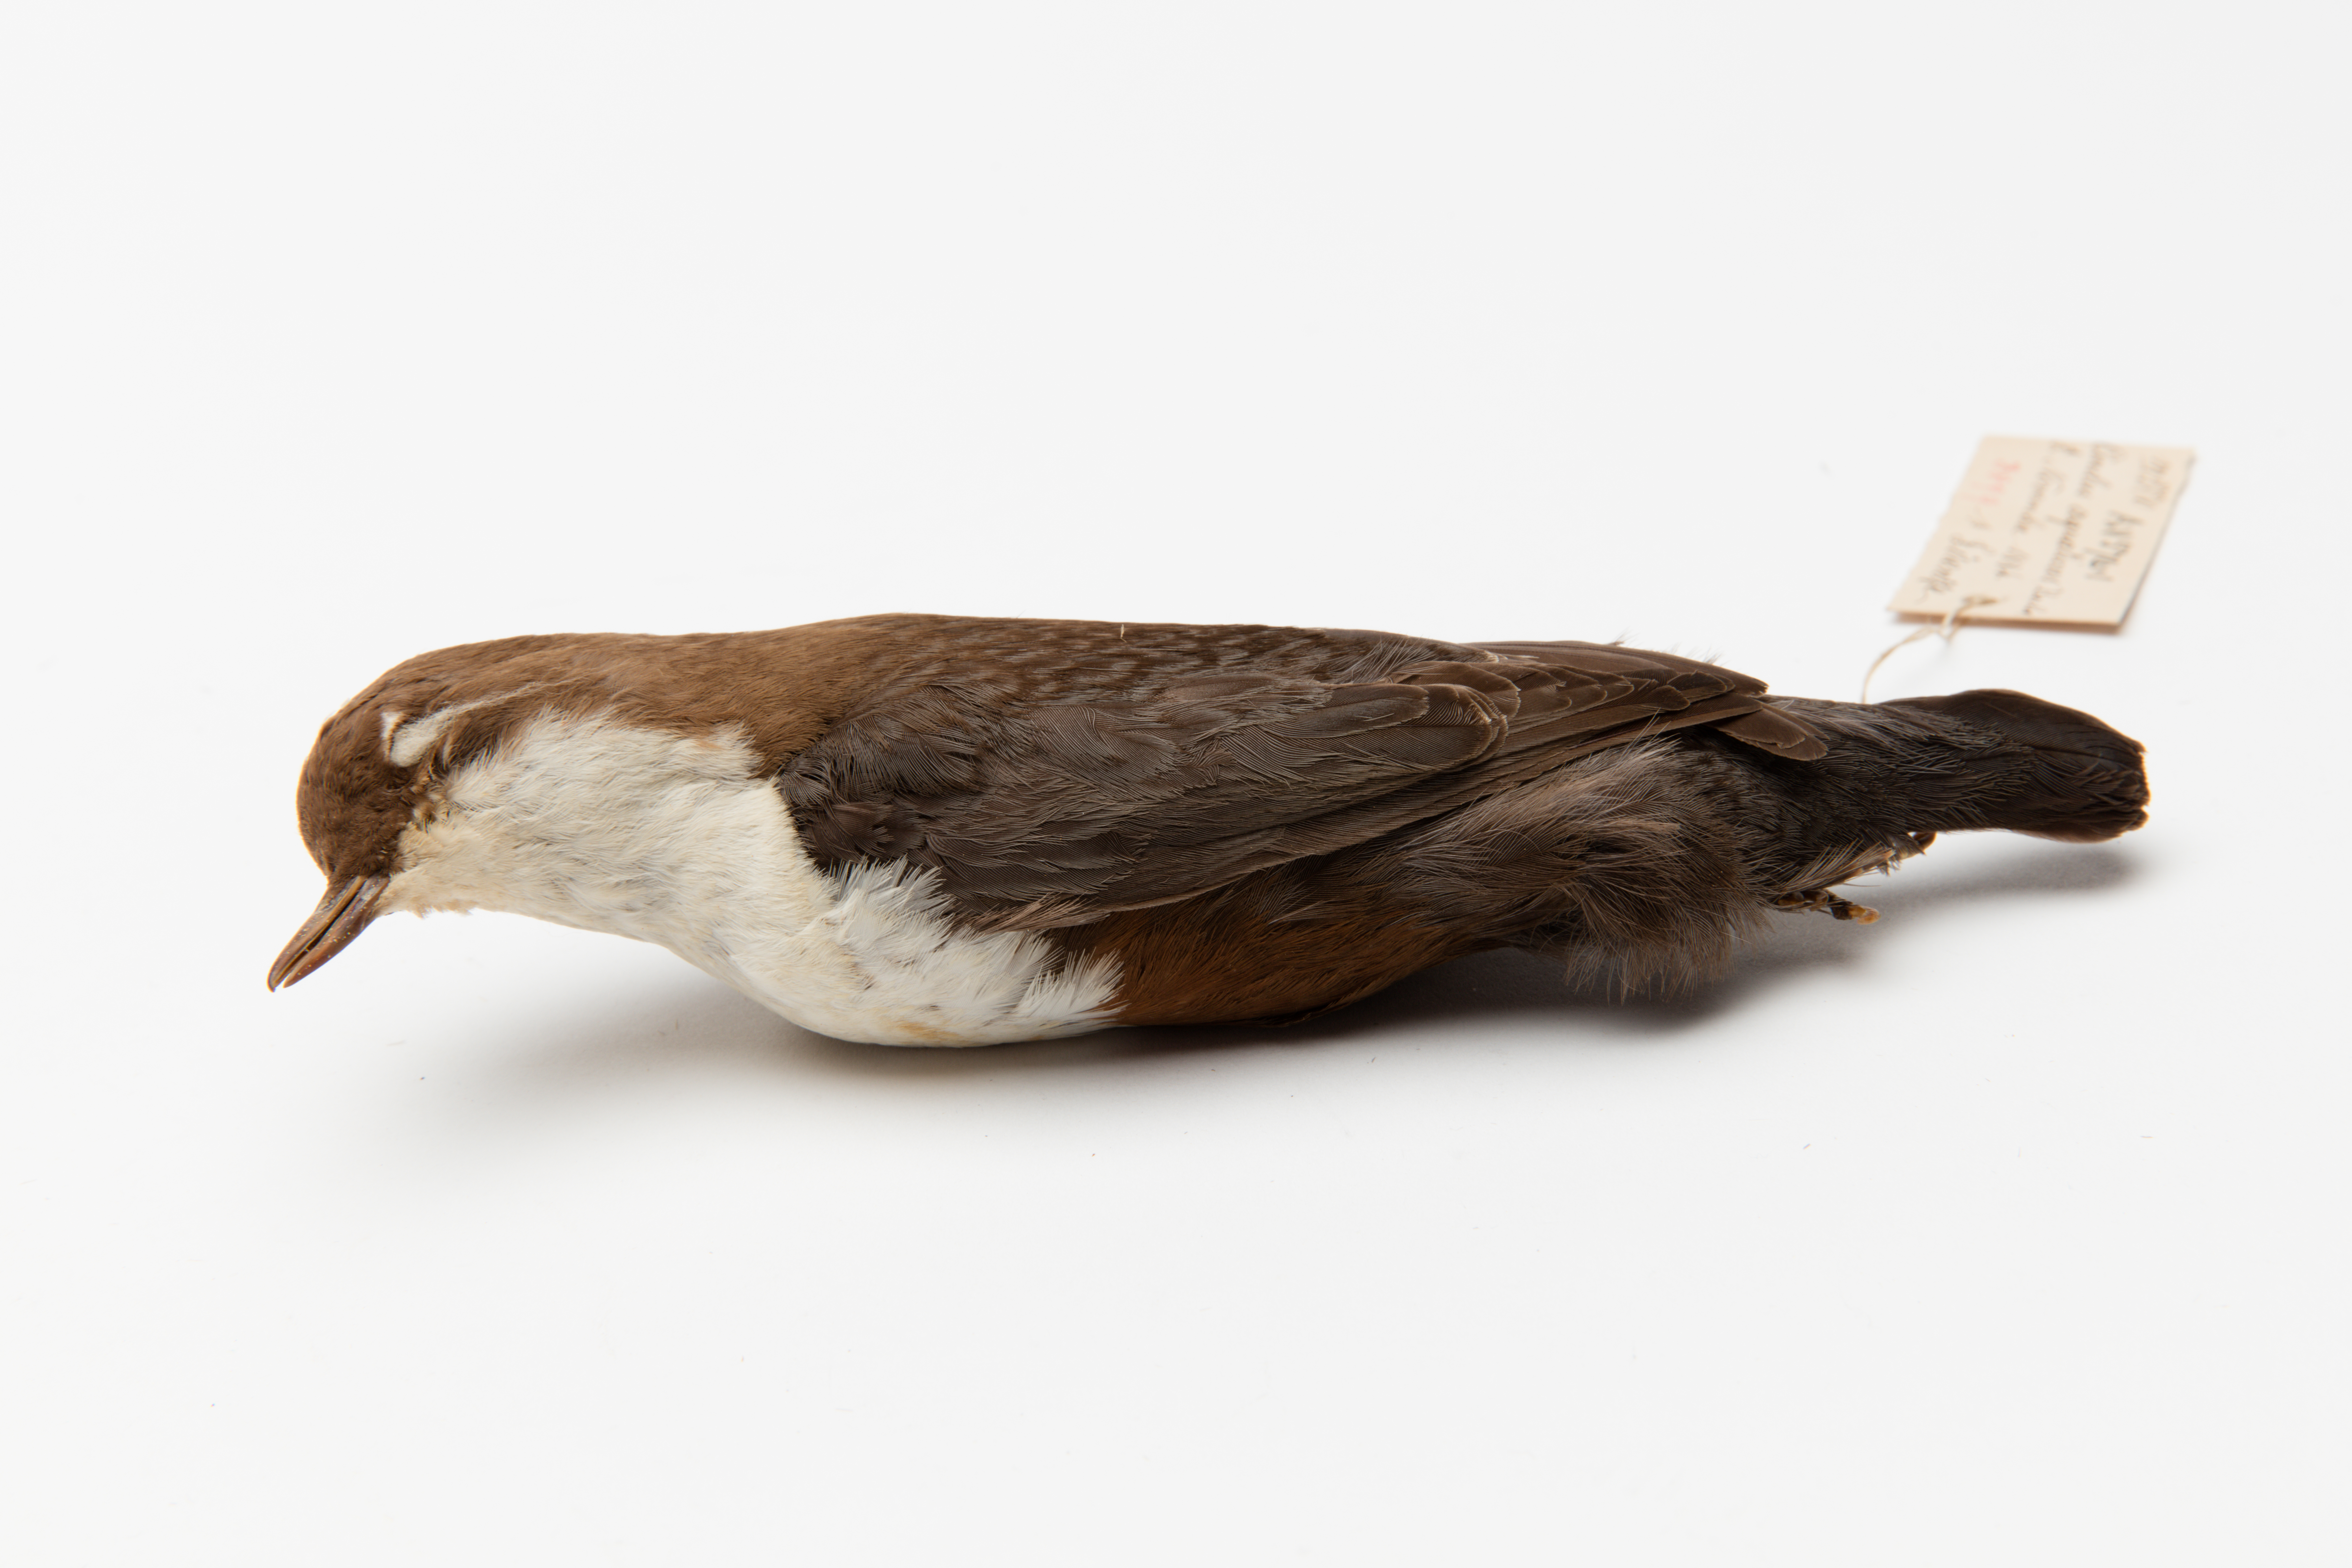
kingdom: Animalia
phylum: Chordata
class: Aves
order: Passeriformes
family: Cinclidae
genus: Cinclus
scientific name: Cinclus cinclus
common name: White-throated dipper
